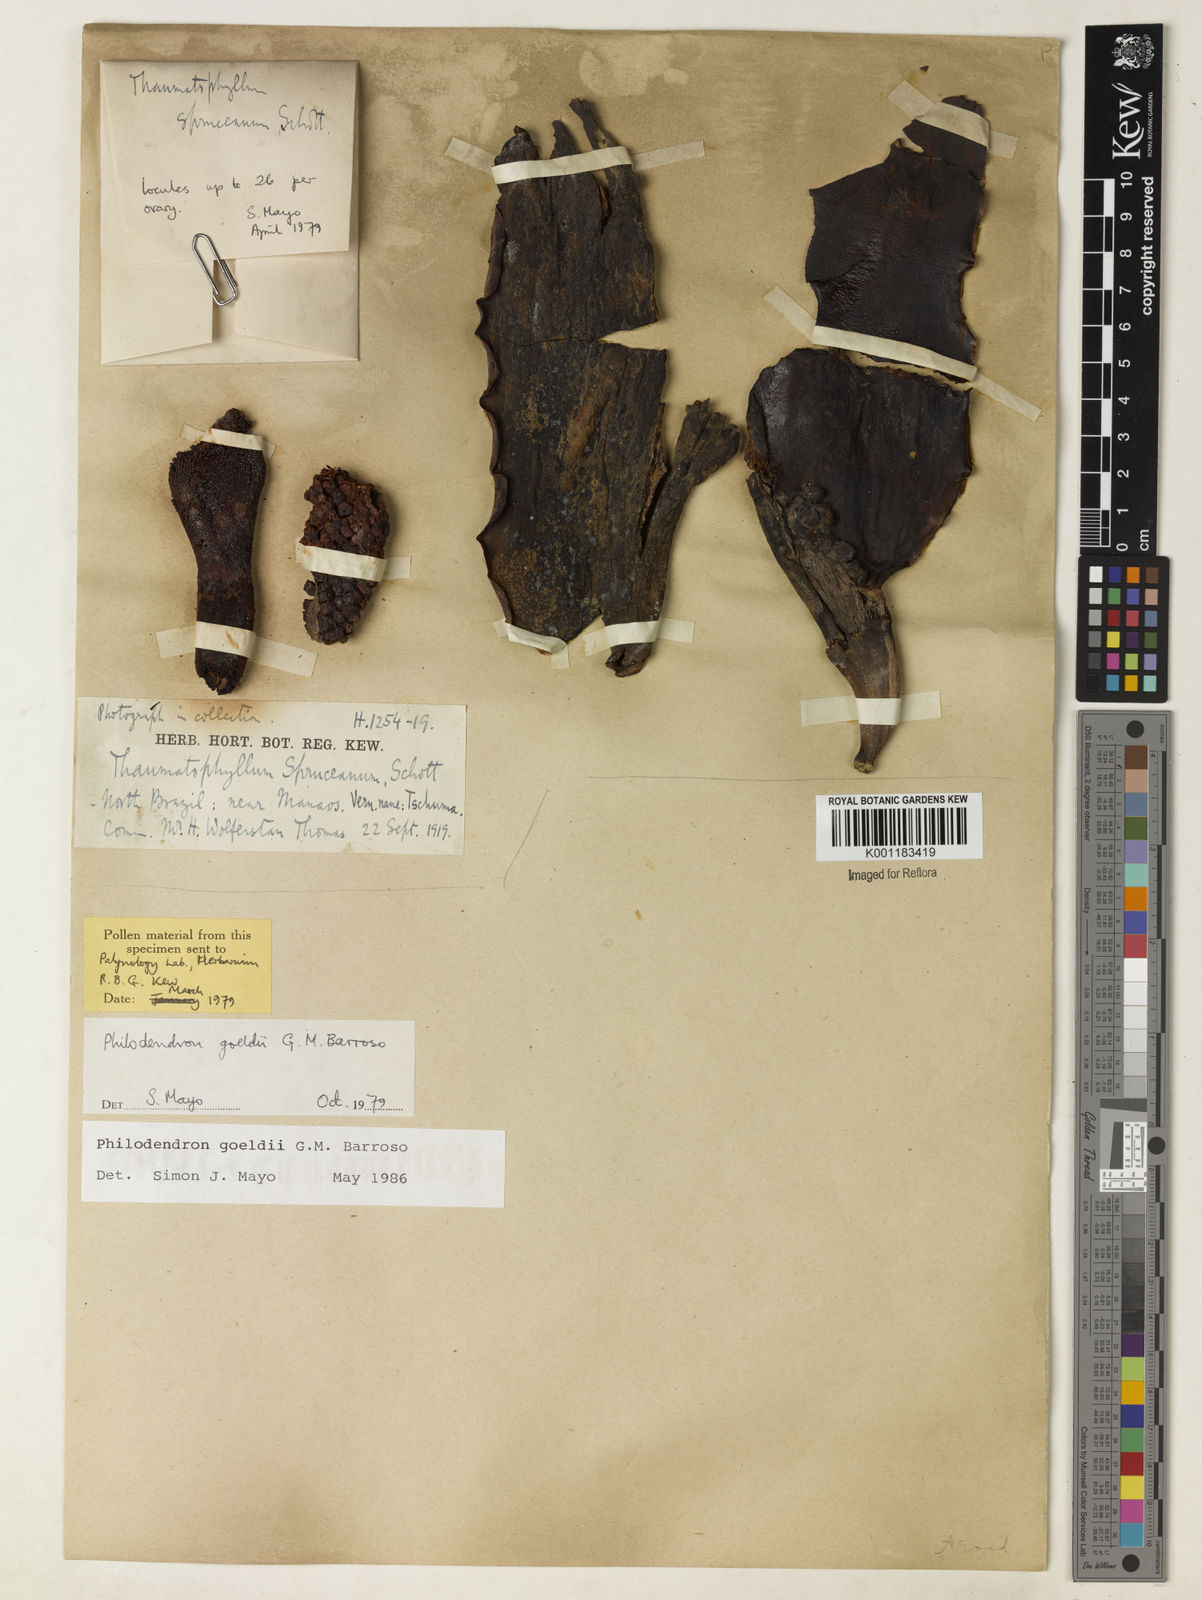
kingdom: Plantae
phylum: Tracheophyta
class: Liliopsida
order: Alismatales
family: Araceae
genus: Thaumatophyllum
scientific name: Thaumatophyllum spruceanum
